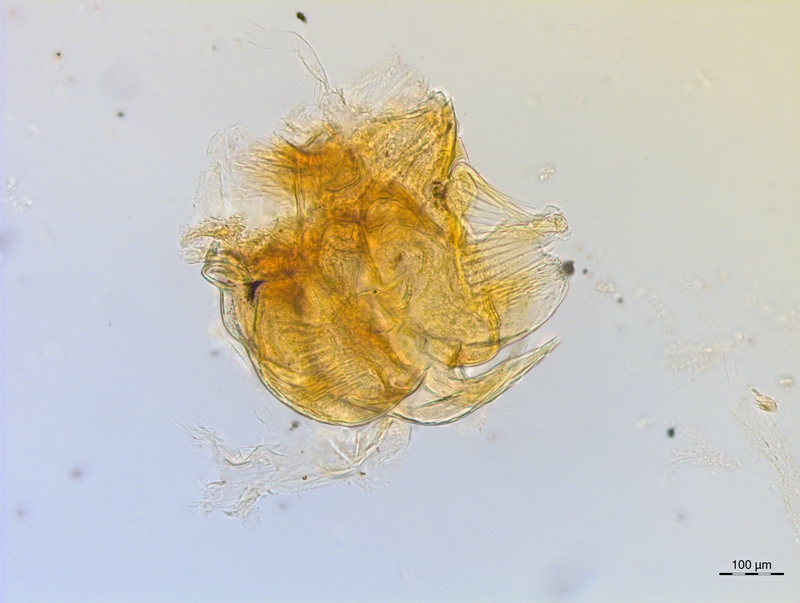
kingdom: Animalia
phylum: Arthropoda
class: Diplopoda
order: Chordeumatida
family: Craspedosomatidae
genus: Craspedosoma
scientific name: Craspedosoma rawlinsii
